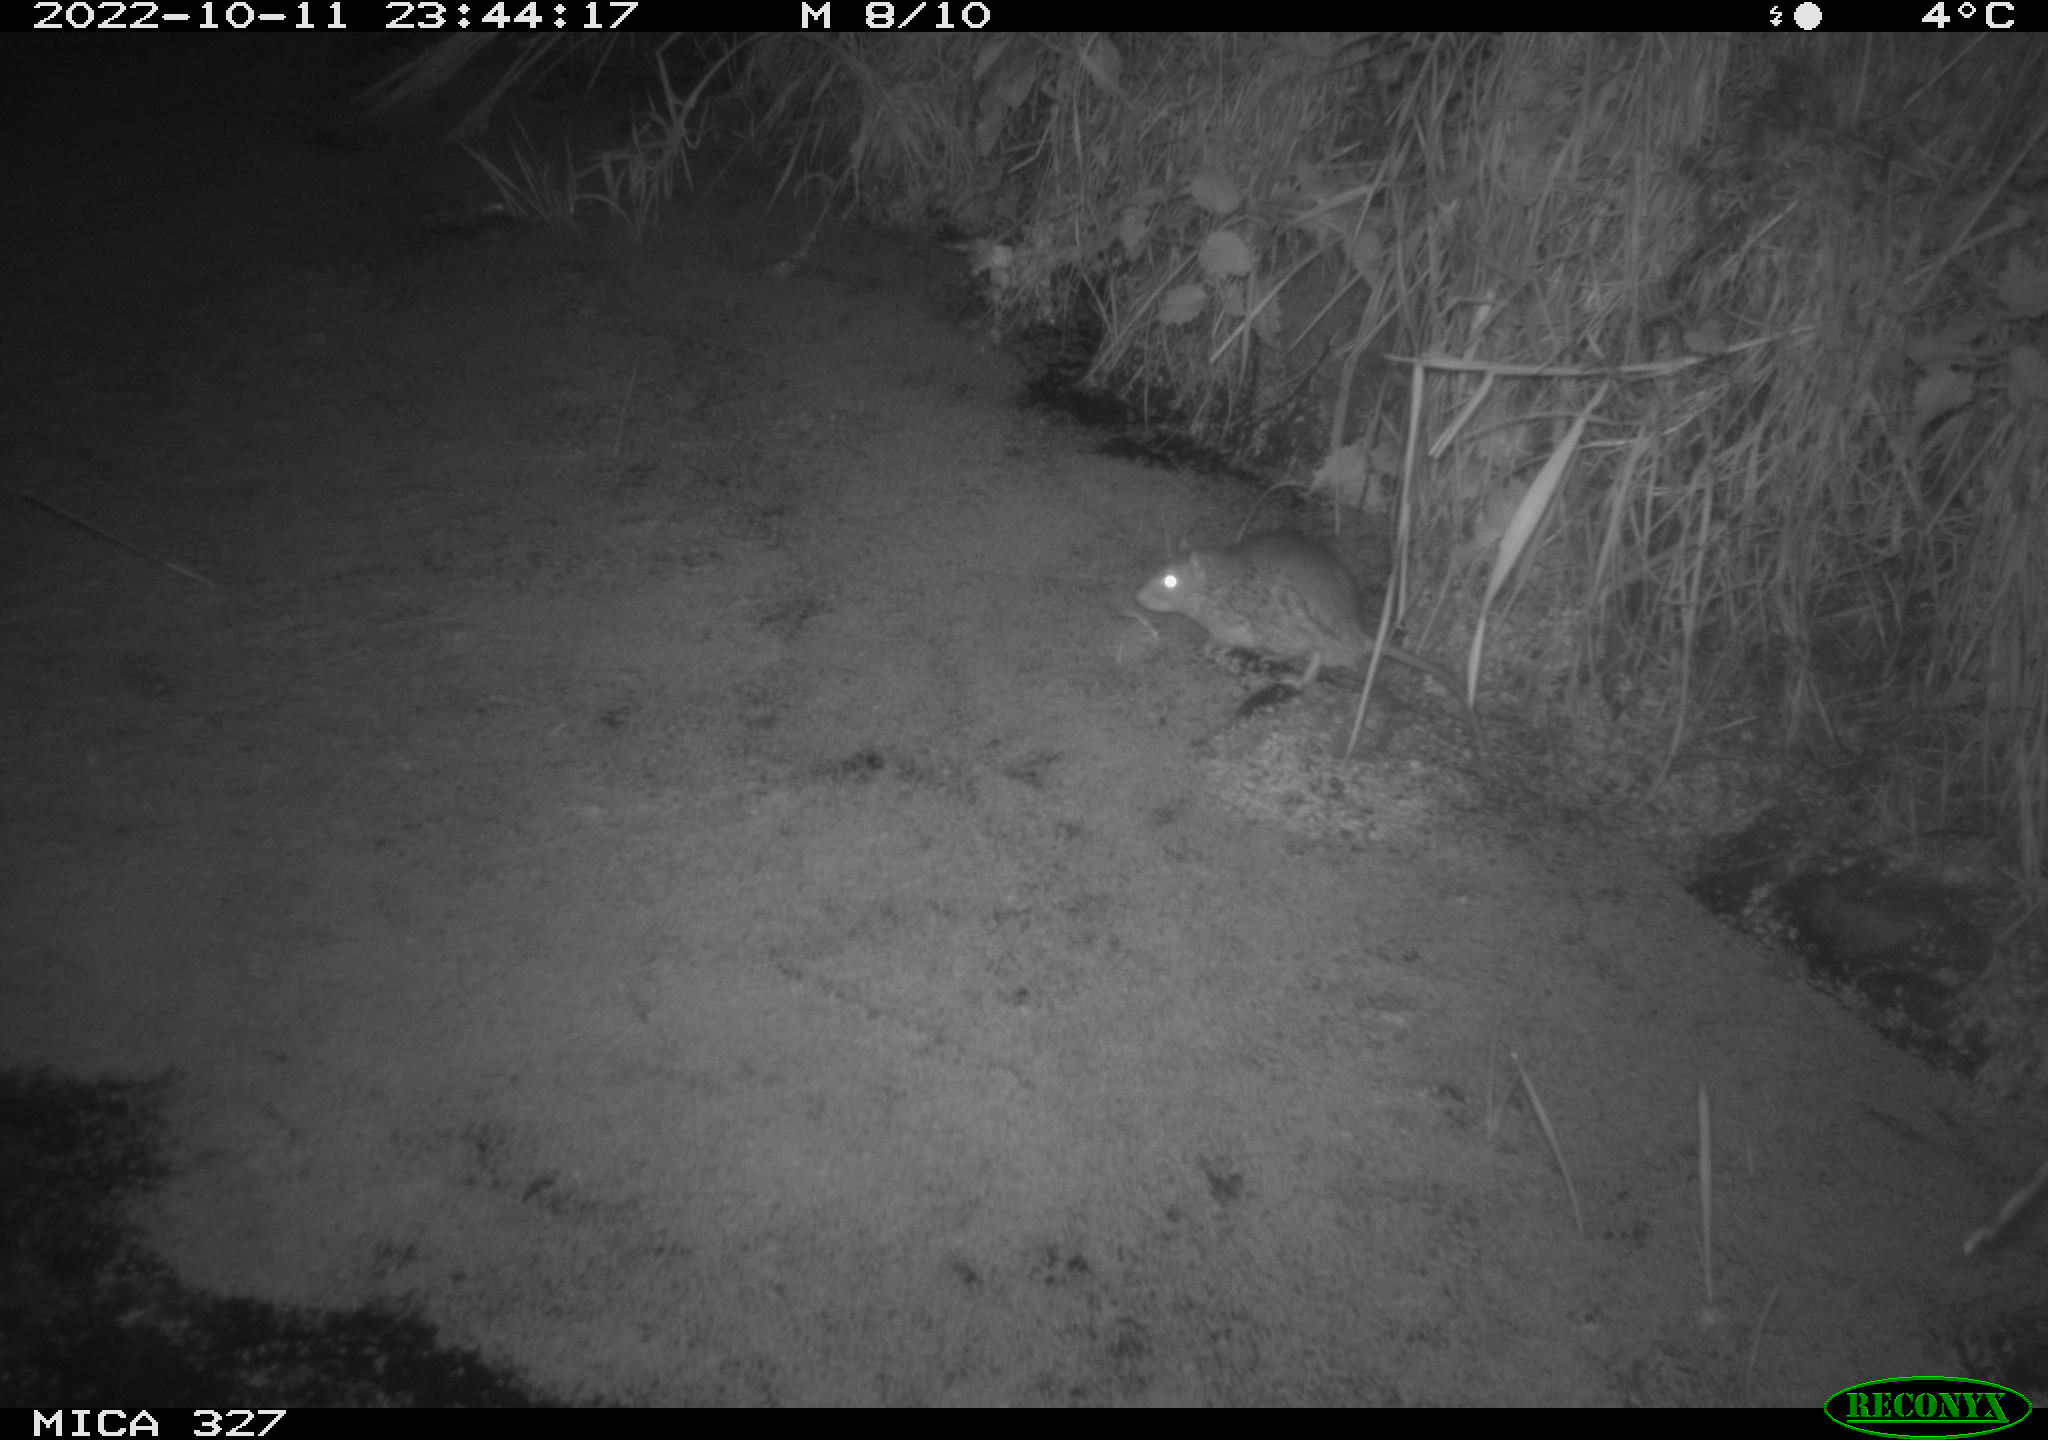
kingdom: Animalia
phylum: Chordata
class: Mammalia
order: Rodentia
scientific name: Rodentia
